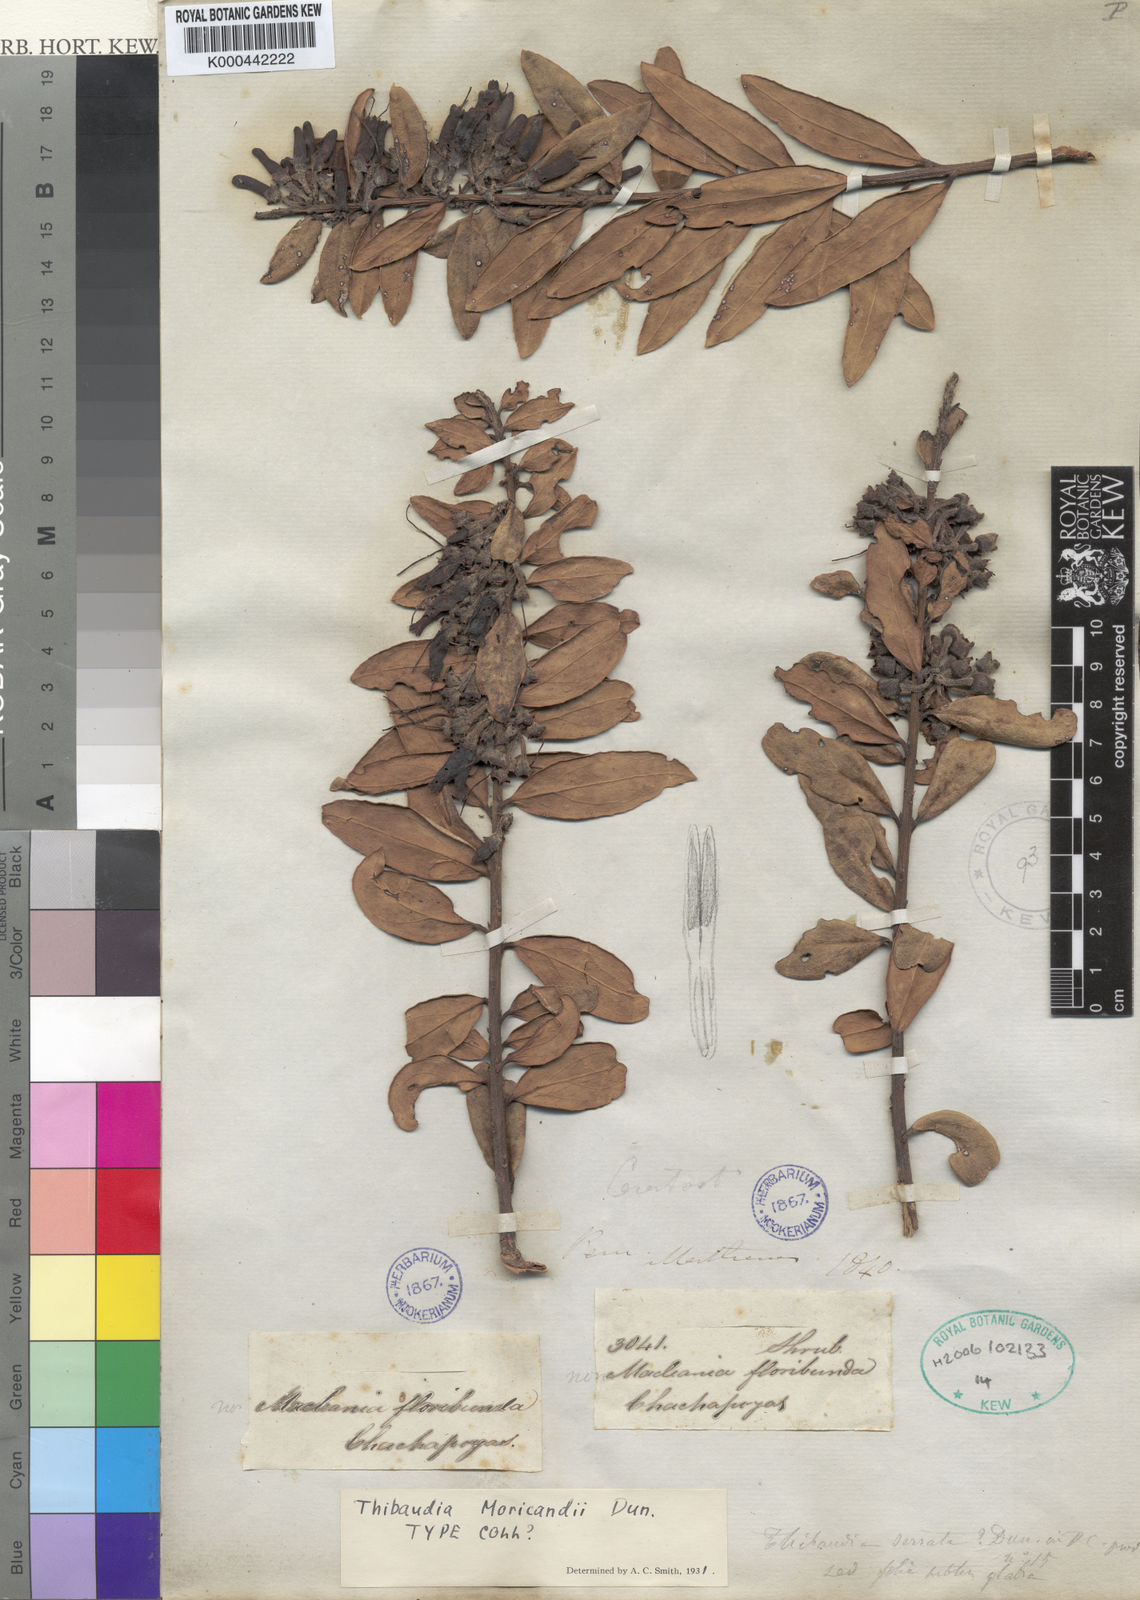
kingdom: Plantae
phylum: Tracheophyta
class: Magnoliopsida
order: Ericales
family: Ericaceae
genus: Thibaudia
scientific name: Thibaudia moricandii
